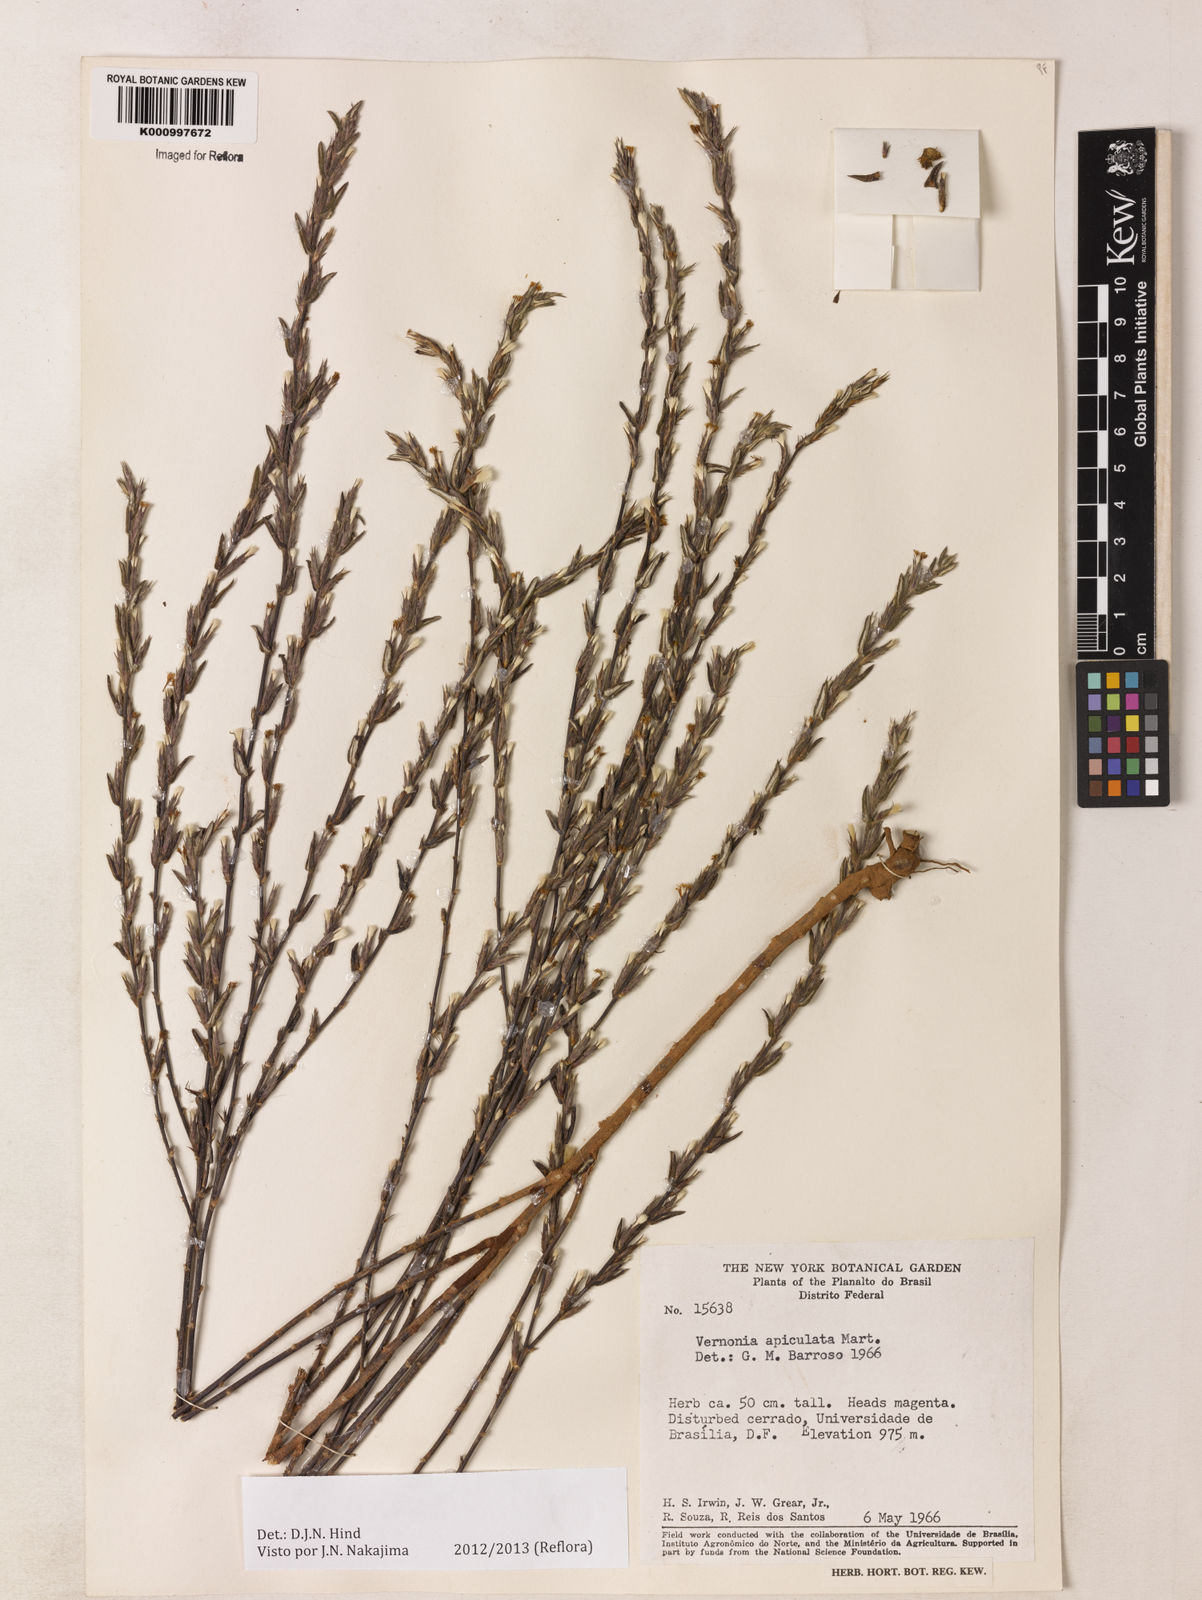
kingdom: Plantae
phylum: Tracheophyta
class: Magnoliopsida
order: Asterales
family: Asteraceae
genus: Stenocephalum
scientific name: Stenocephalum apiculatum
